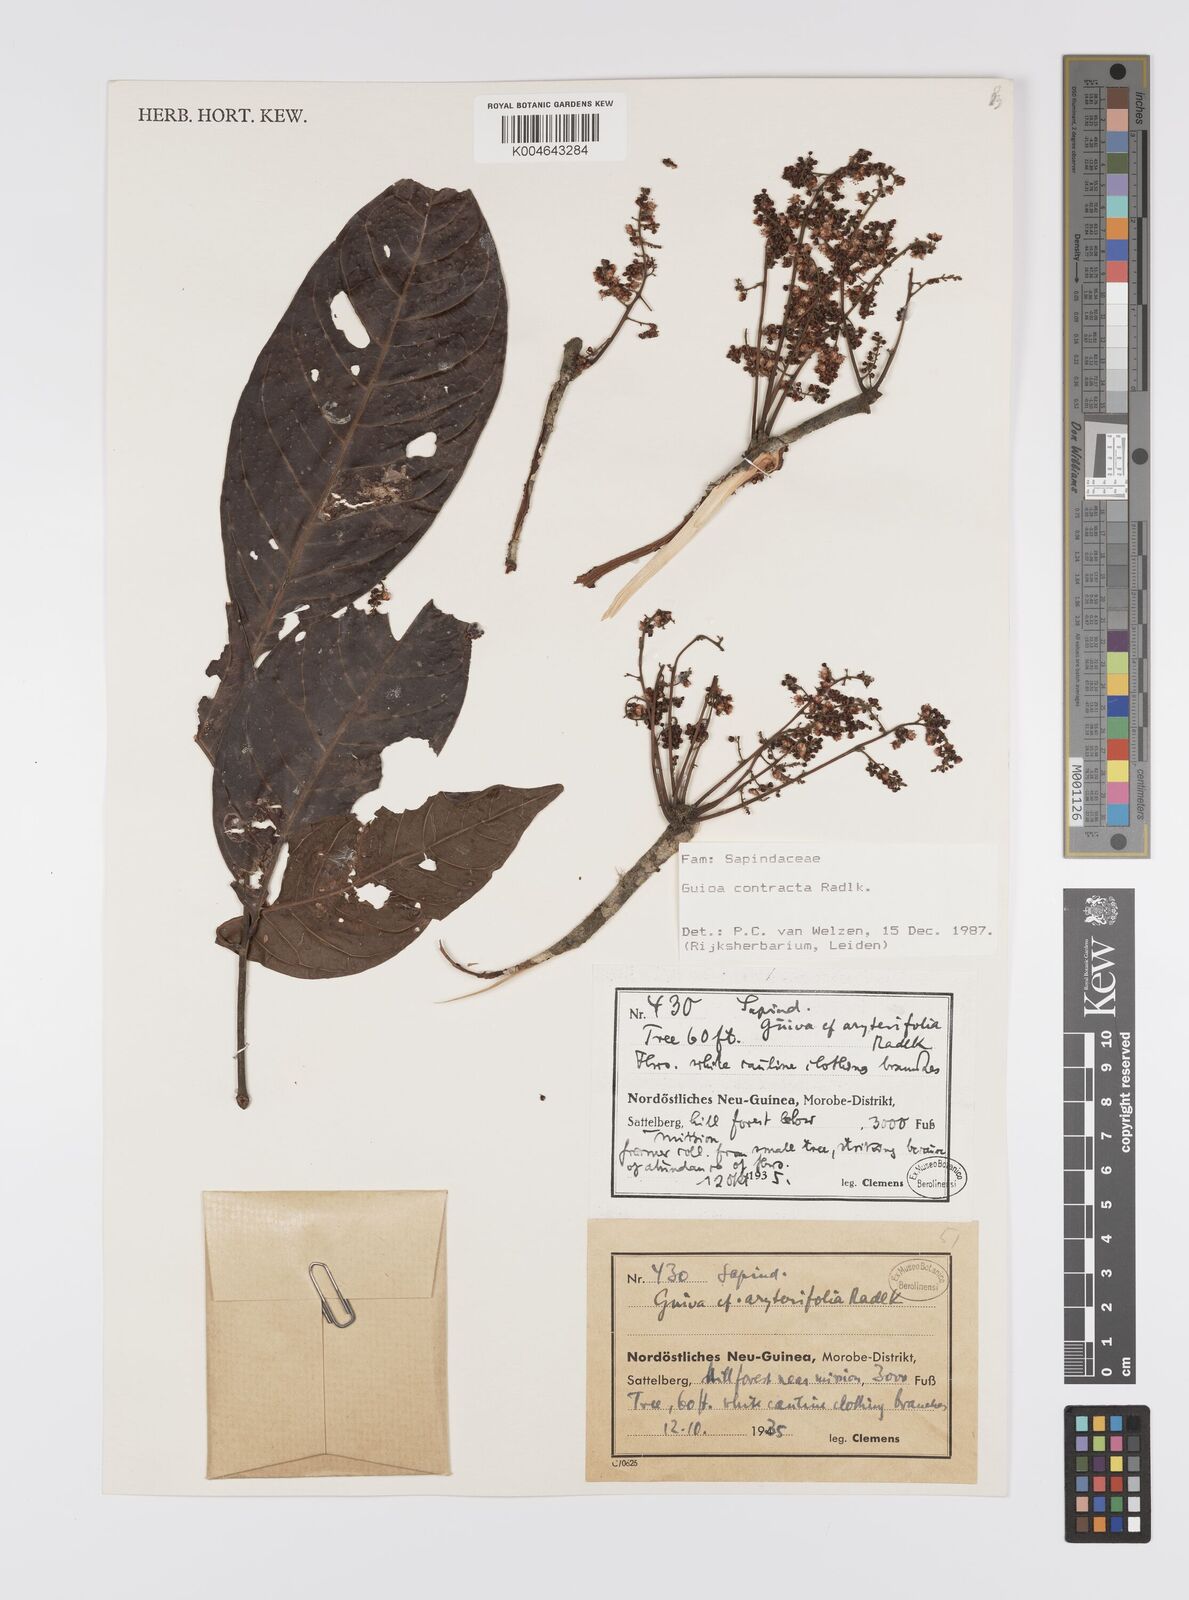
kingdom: Plantae
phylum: Tracheophyta
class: Magnoliopsida
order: Sapindales
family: Sapindaceae
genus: Guioa
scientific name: Guioa contracta
